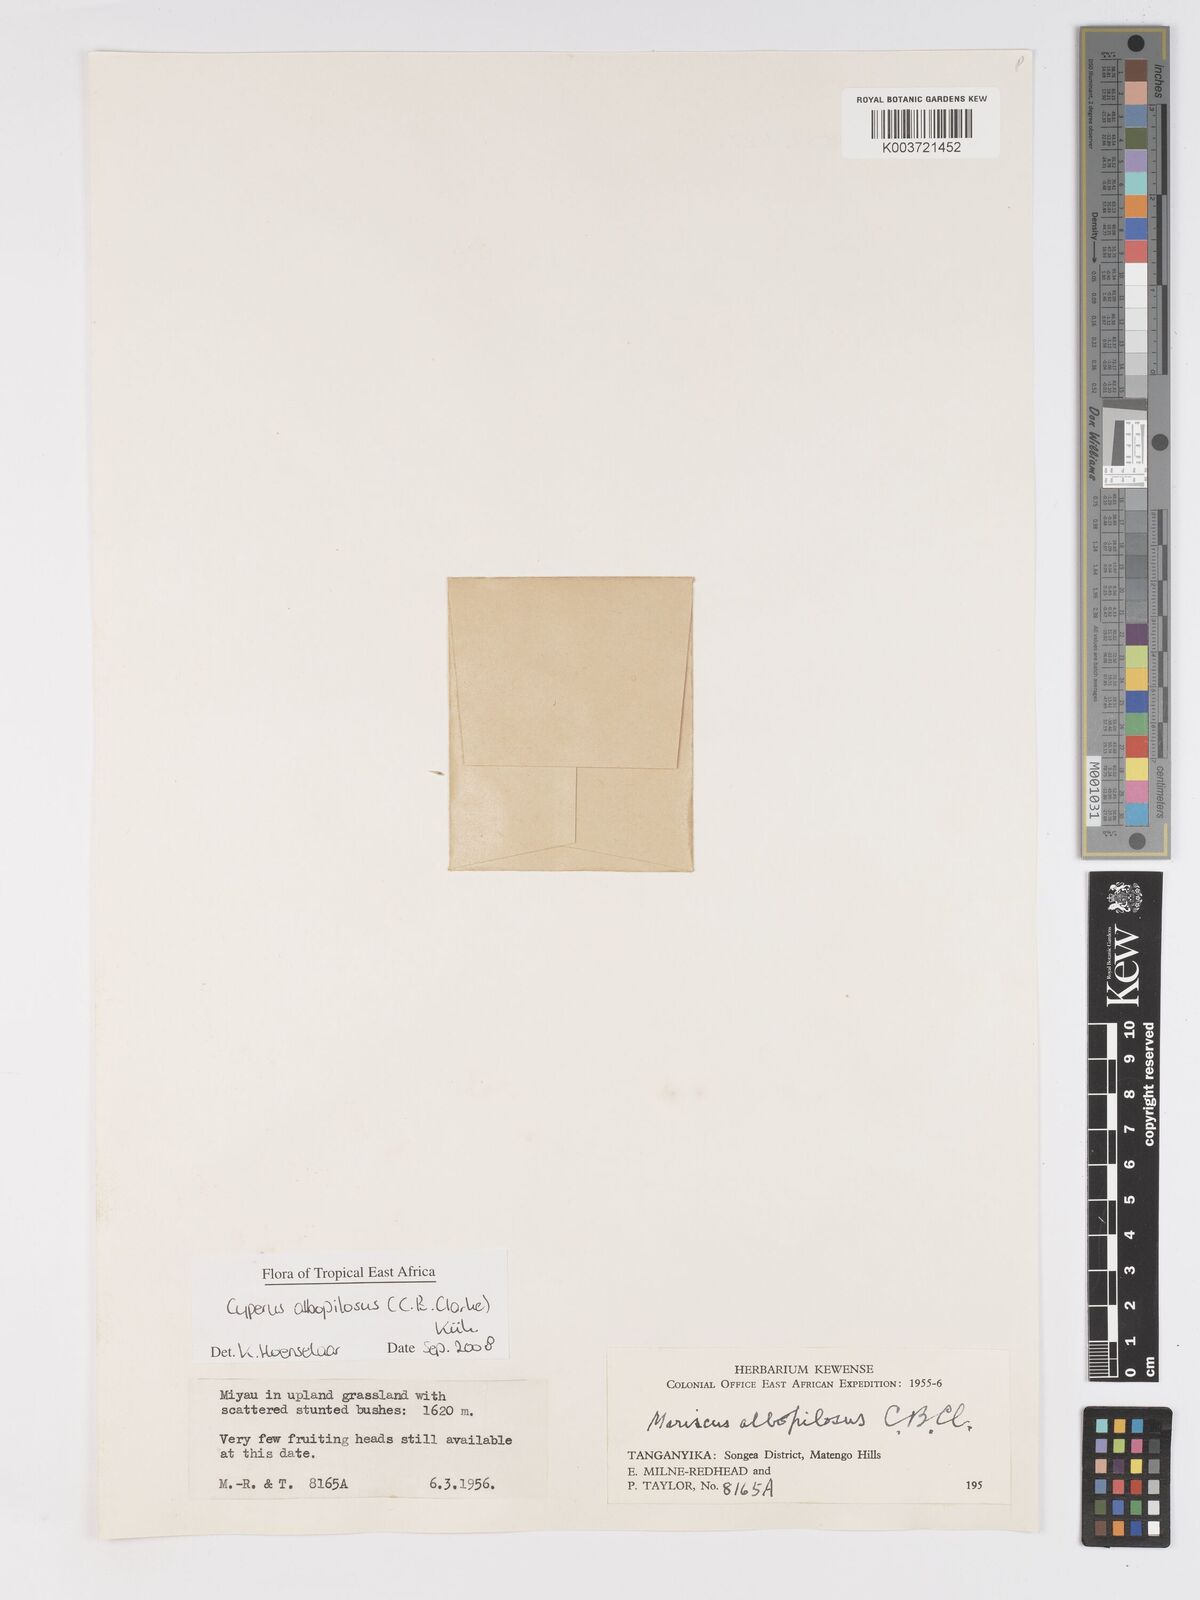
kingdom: Plantae
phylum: Tracheophyta
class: Liliopsida
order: Poales
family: Cyperaceae
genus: Cyperus
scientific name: Cyperus albopilosus
